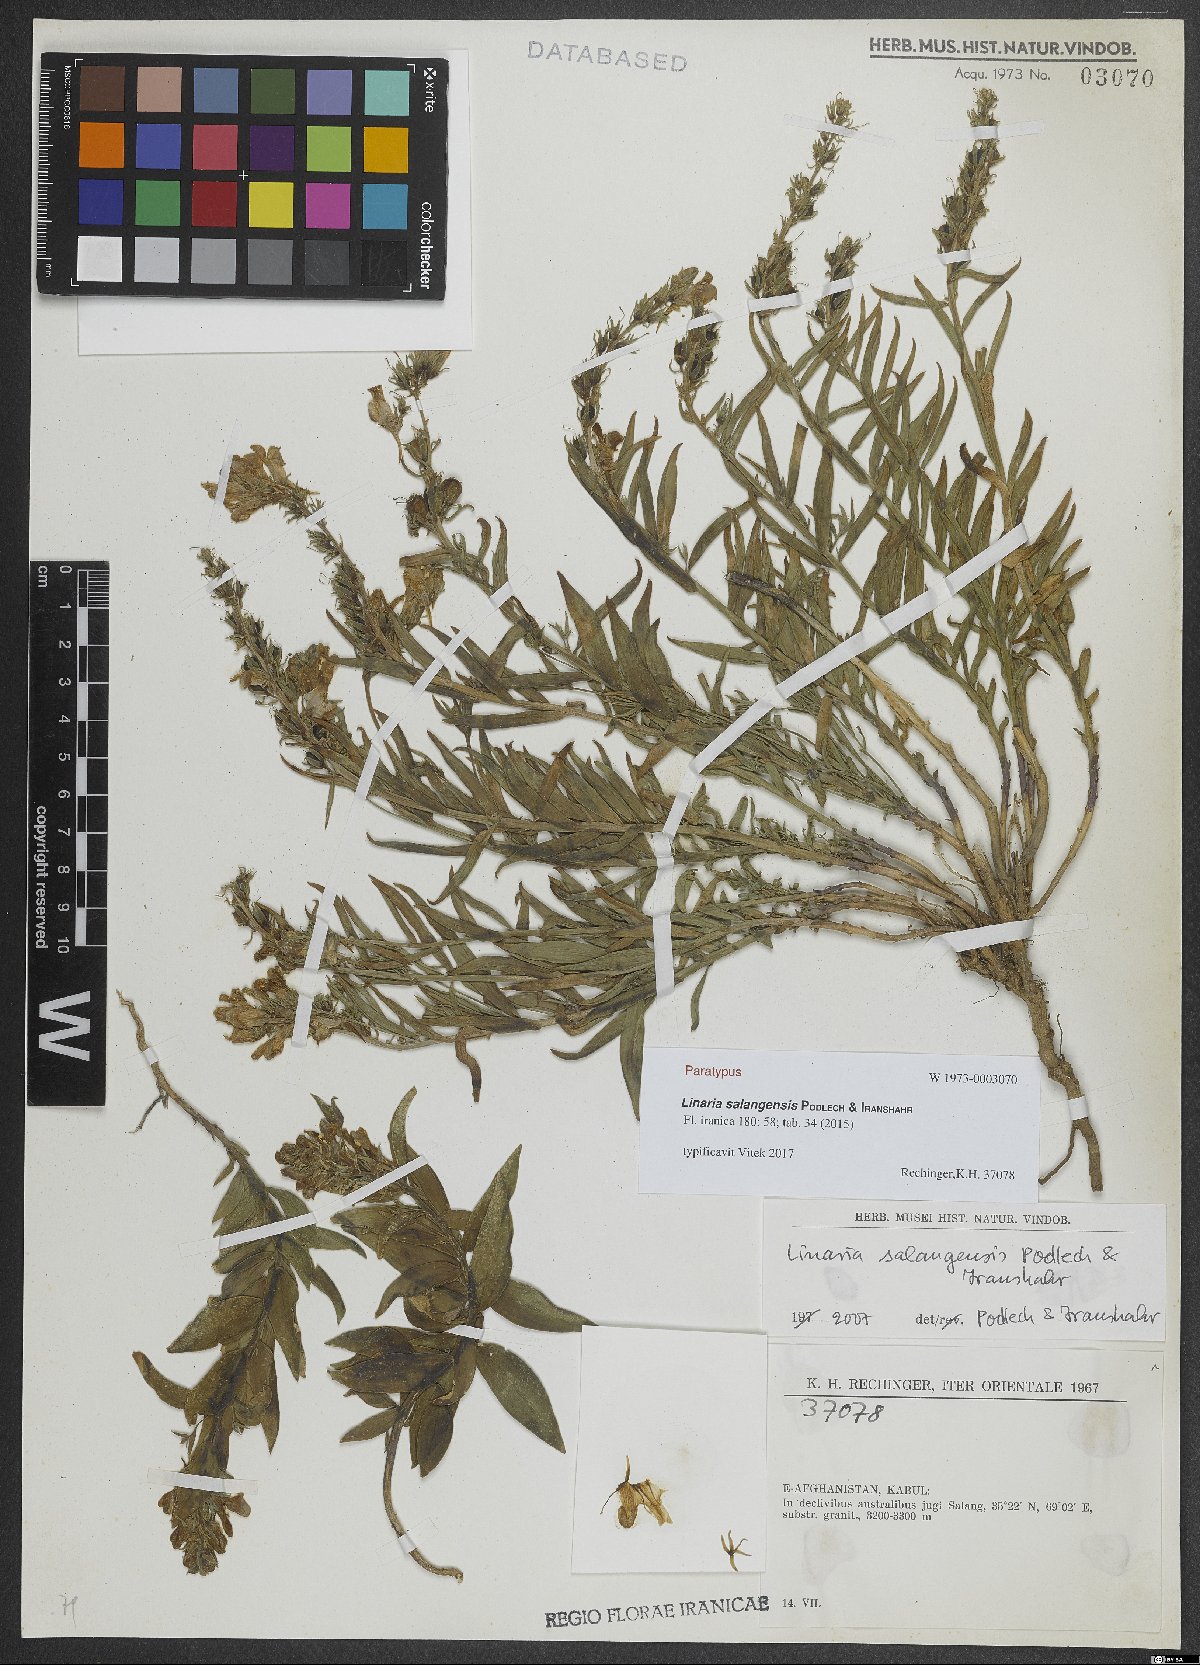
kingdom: Plantae
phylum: Tracheophyta
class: Magnoliopsida
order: Lamiales
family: Plantaginaceae
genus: Linaria
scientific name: Linaria salangensis
